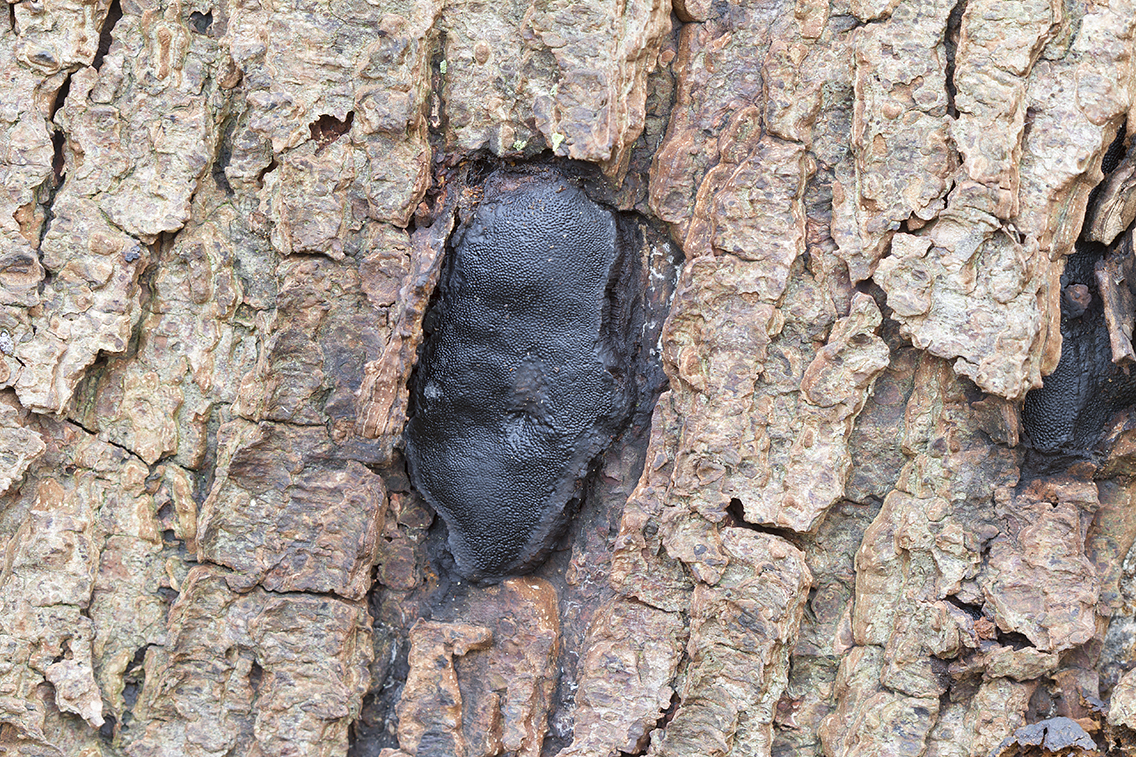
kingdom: Fungi
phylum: Ascomycota
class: Sordariomycetes
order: Boliniales
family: Boliniaceae
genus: Camarops
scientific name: Camarops polysperma
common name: elle-kulsnegl
